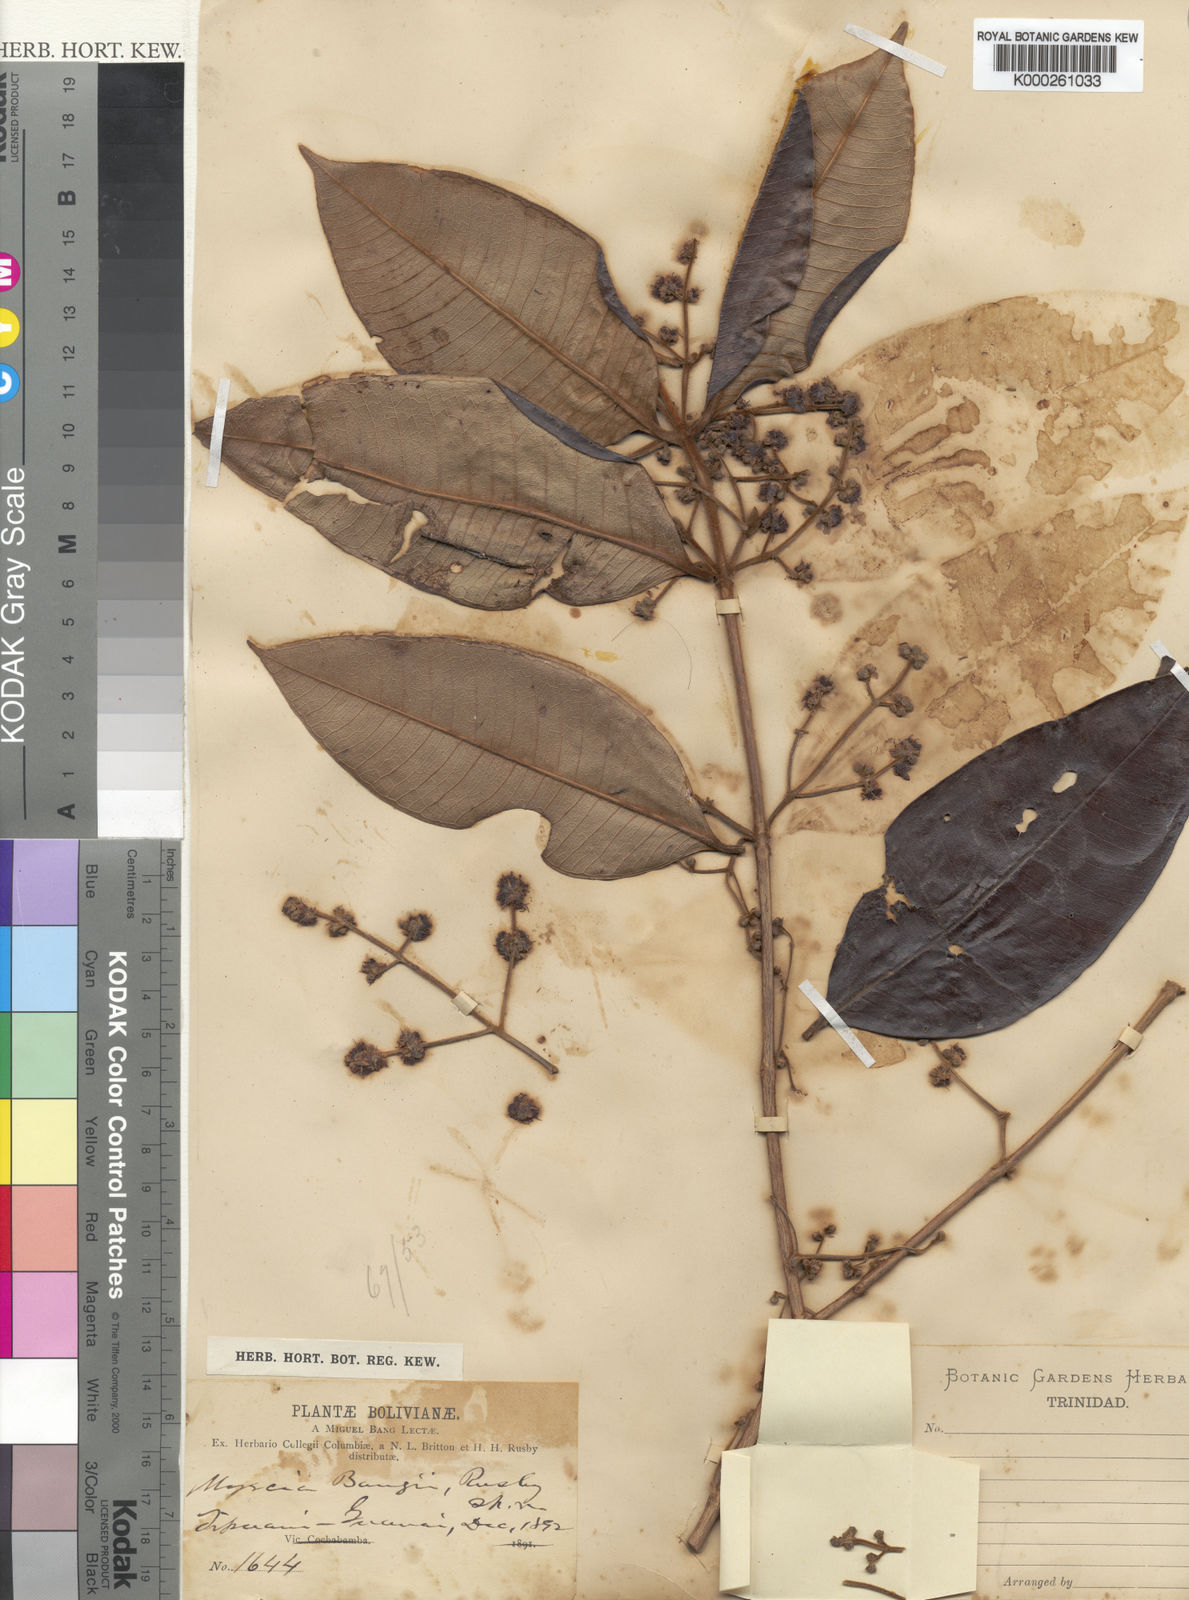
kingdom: Plantae
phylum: Tracheophyta
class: Magnoliopsida
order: Myrtales
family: Myrtaceae
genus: Myrcia
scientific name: Myrcia fascicularis
